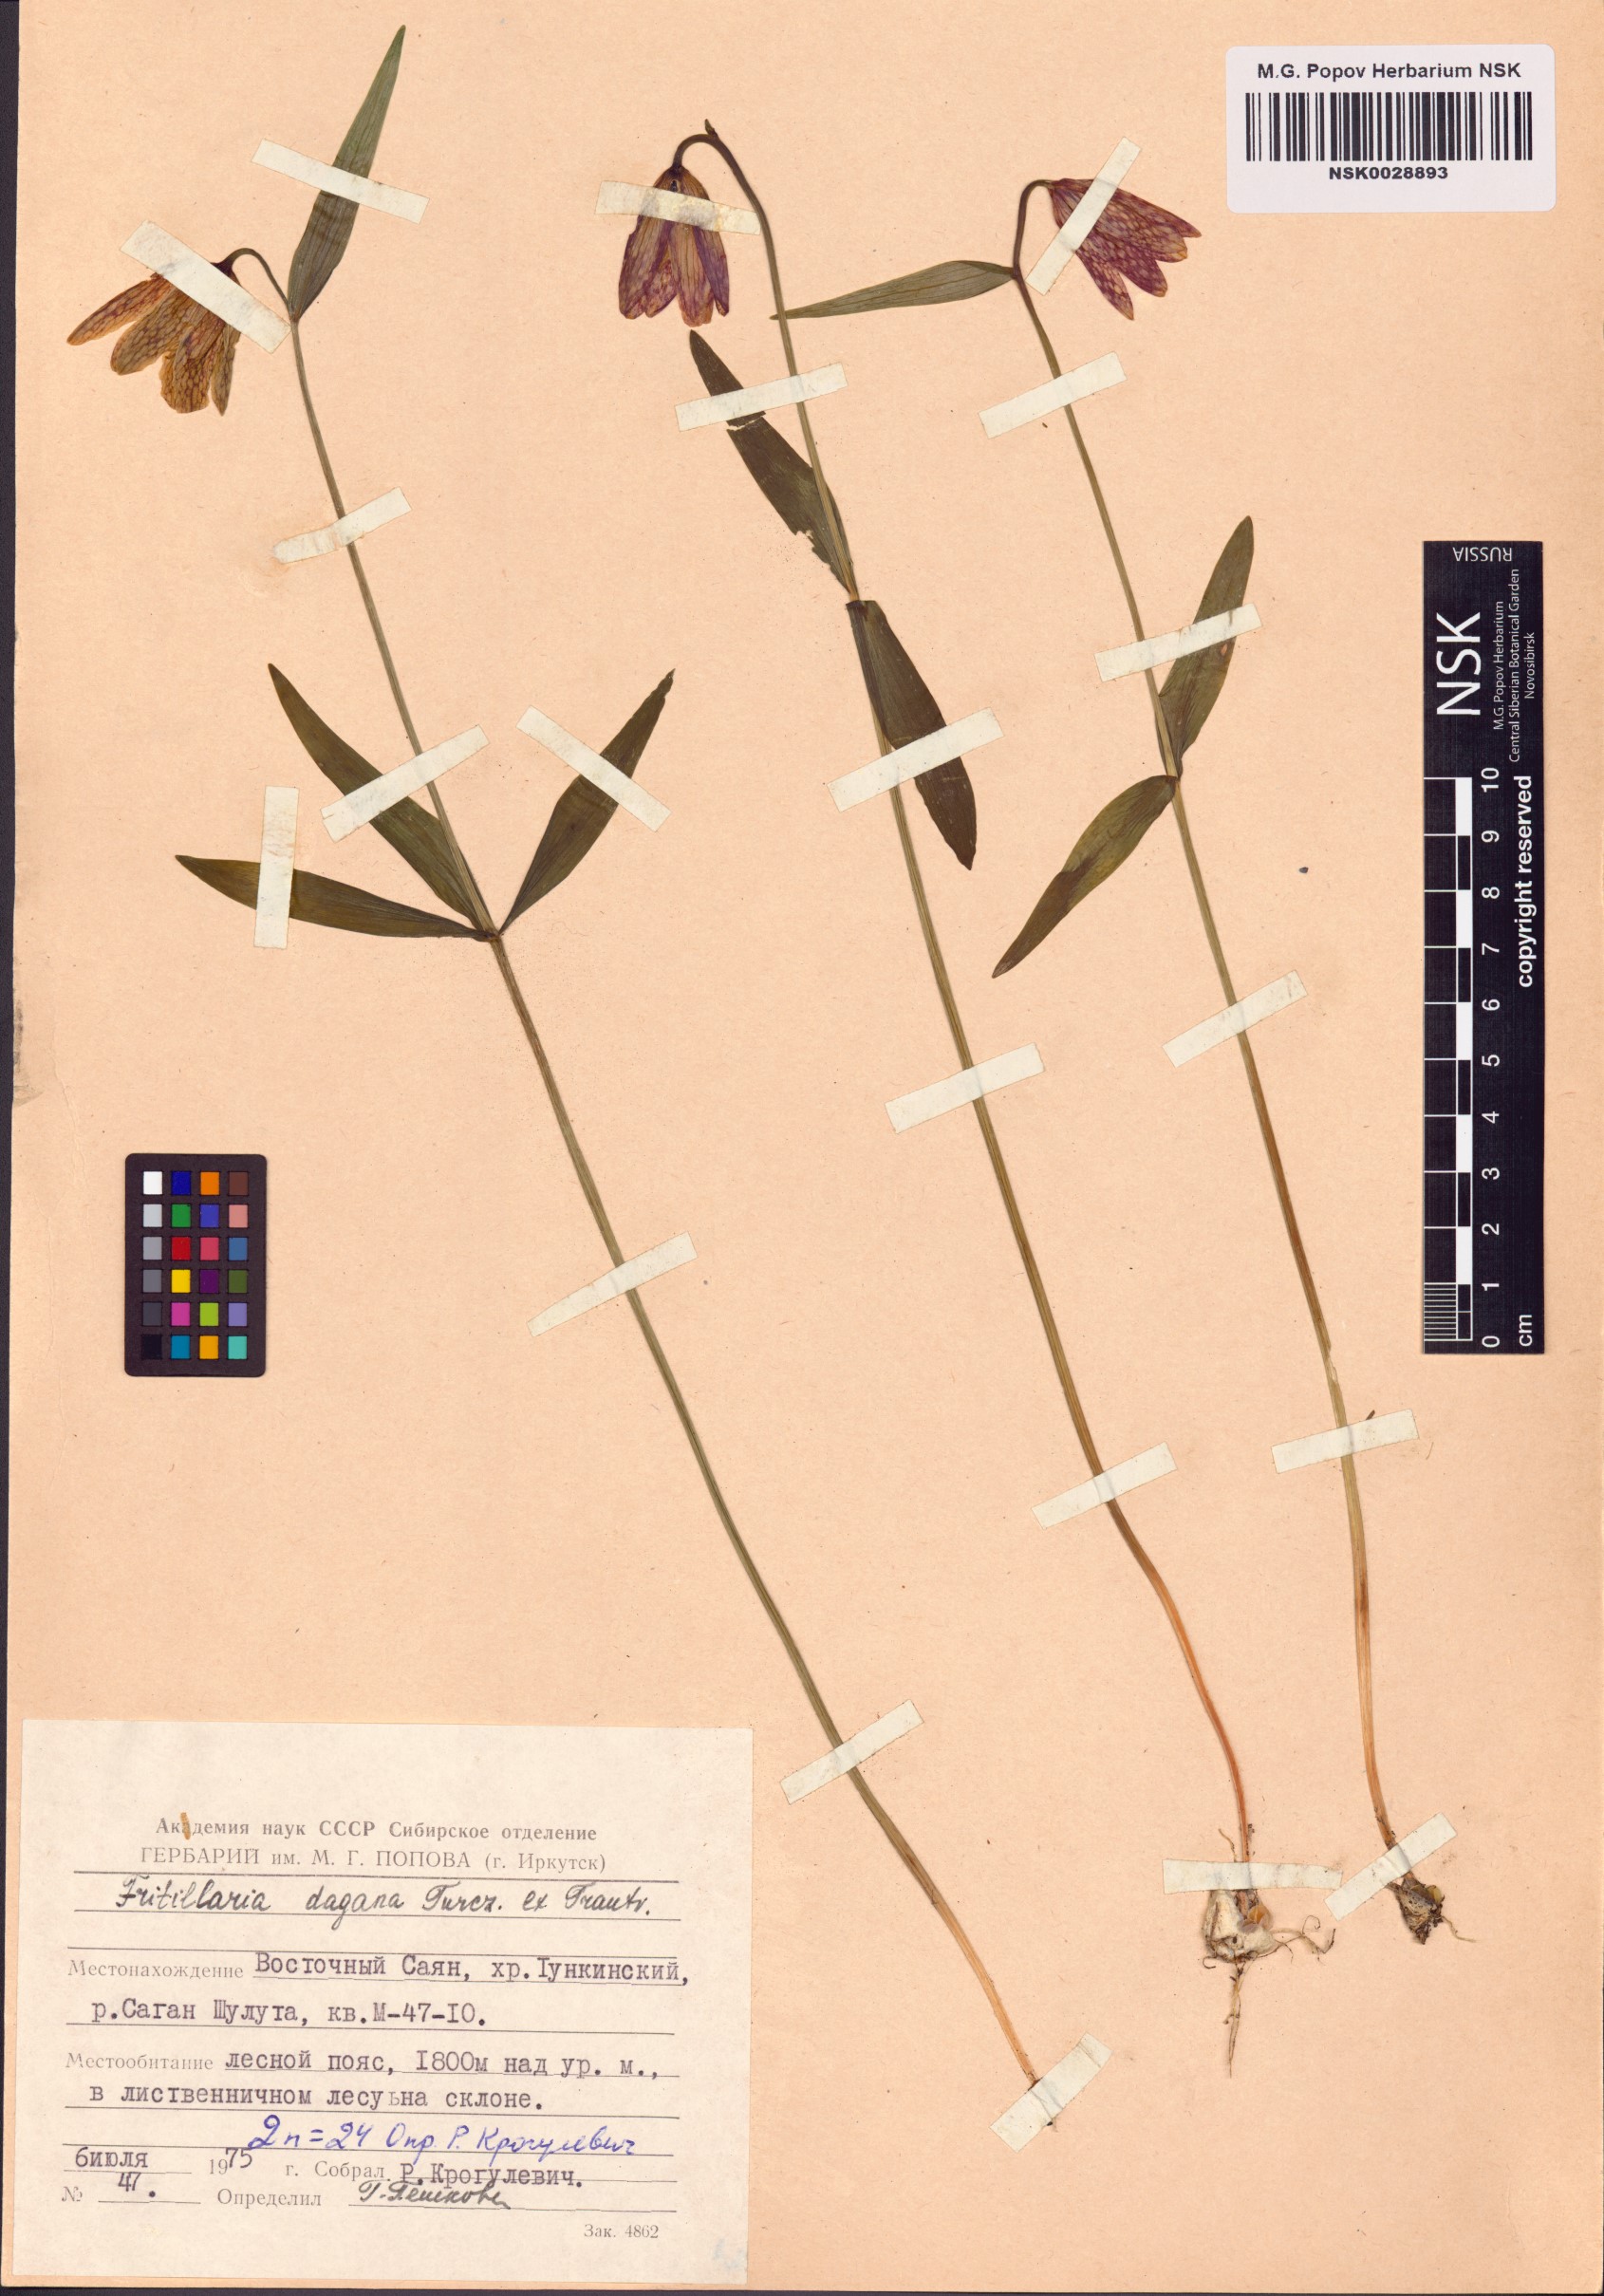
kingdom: Plantae
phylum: Tracheophyta
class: Liliopsida
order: Liliales
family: Liliaceae
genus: Fritillaria
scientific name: Fritillaria dagana
